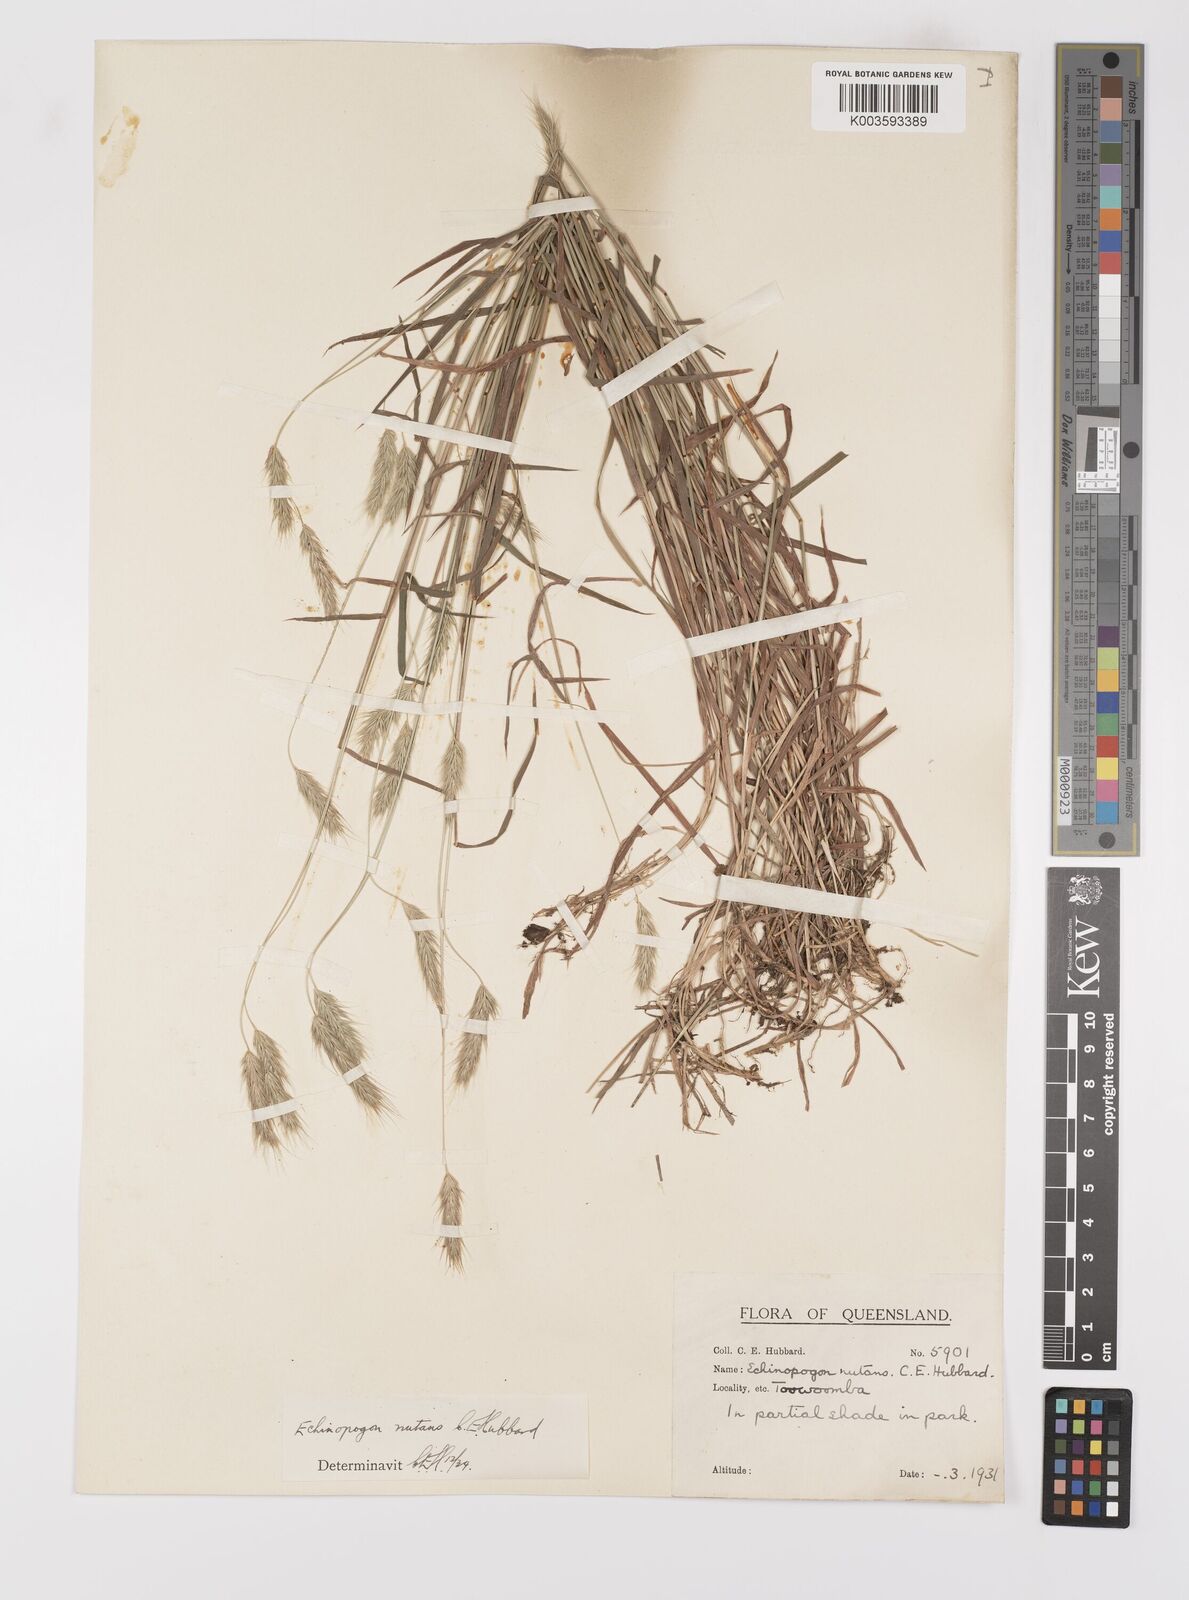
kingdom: Plantae
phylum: Tracheophyta
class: Liliopsida
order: Poales
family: Poaceae
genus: Echinopogon
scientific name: Echinopogon nutans
